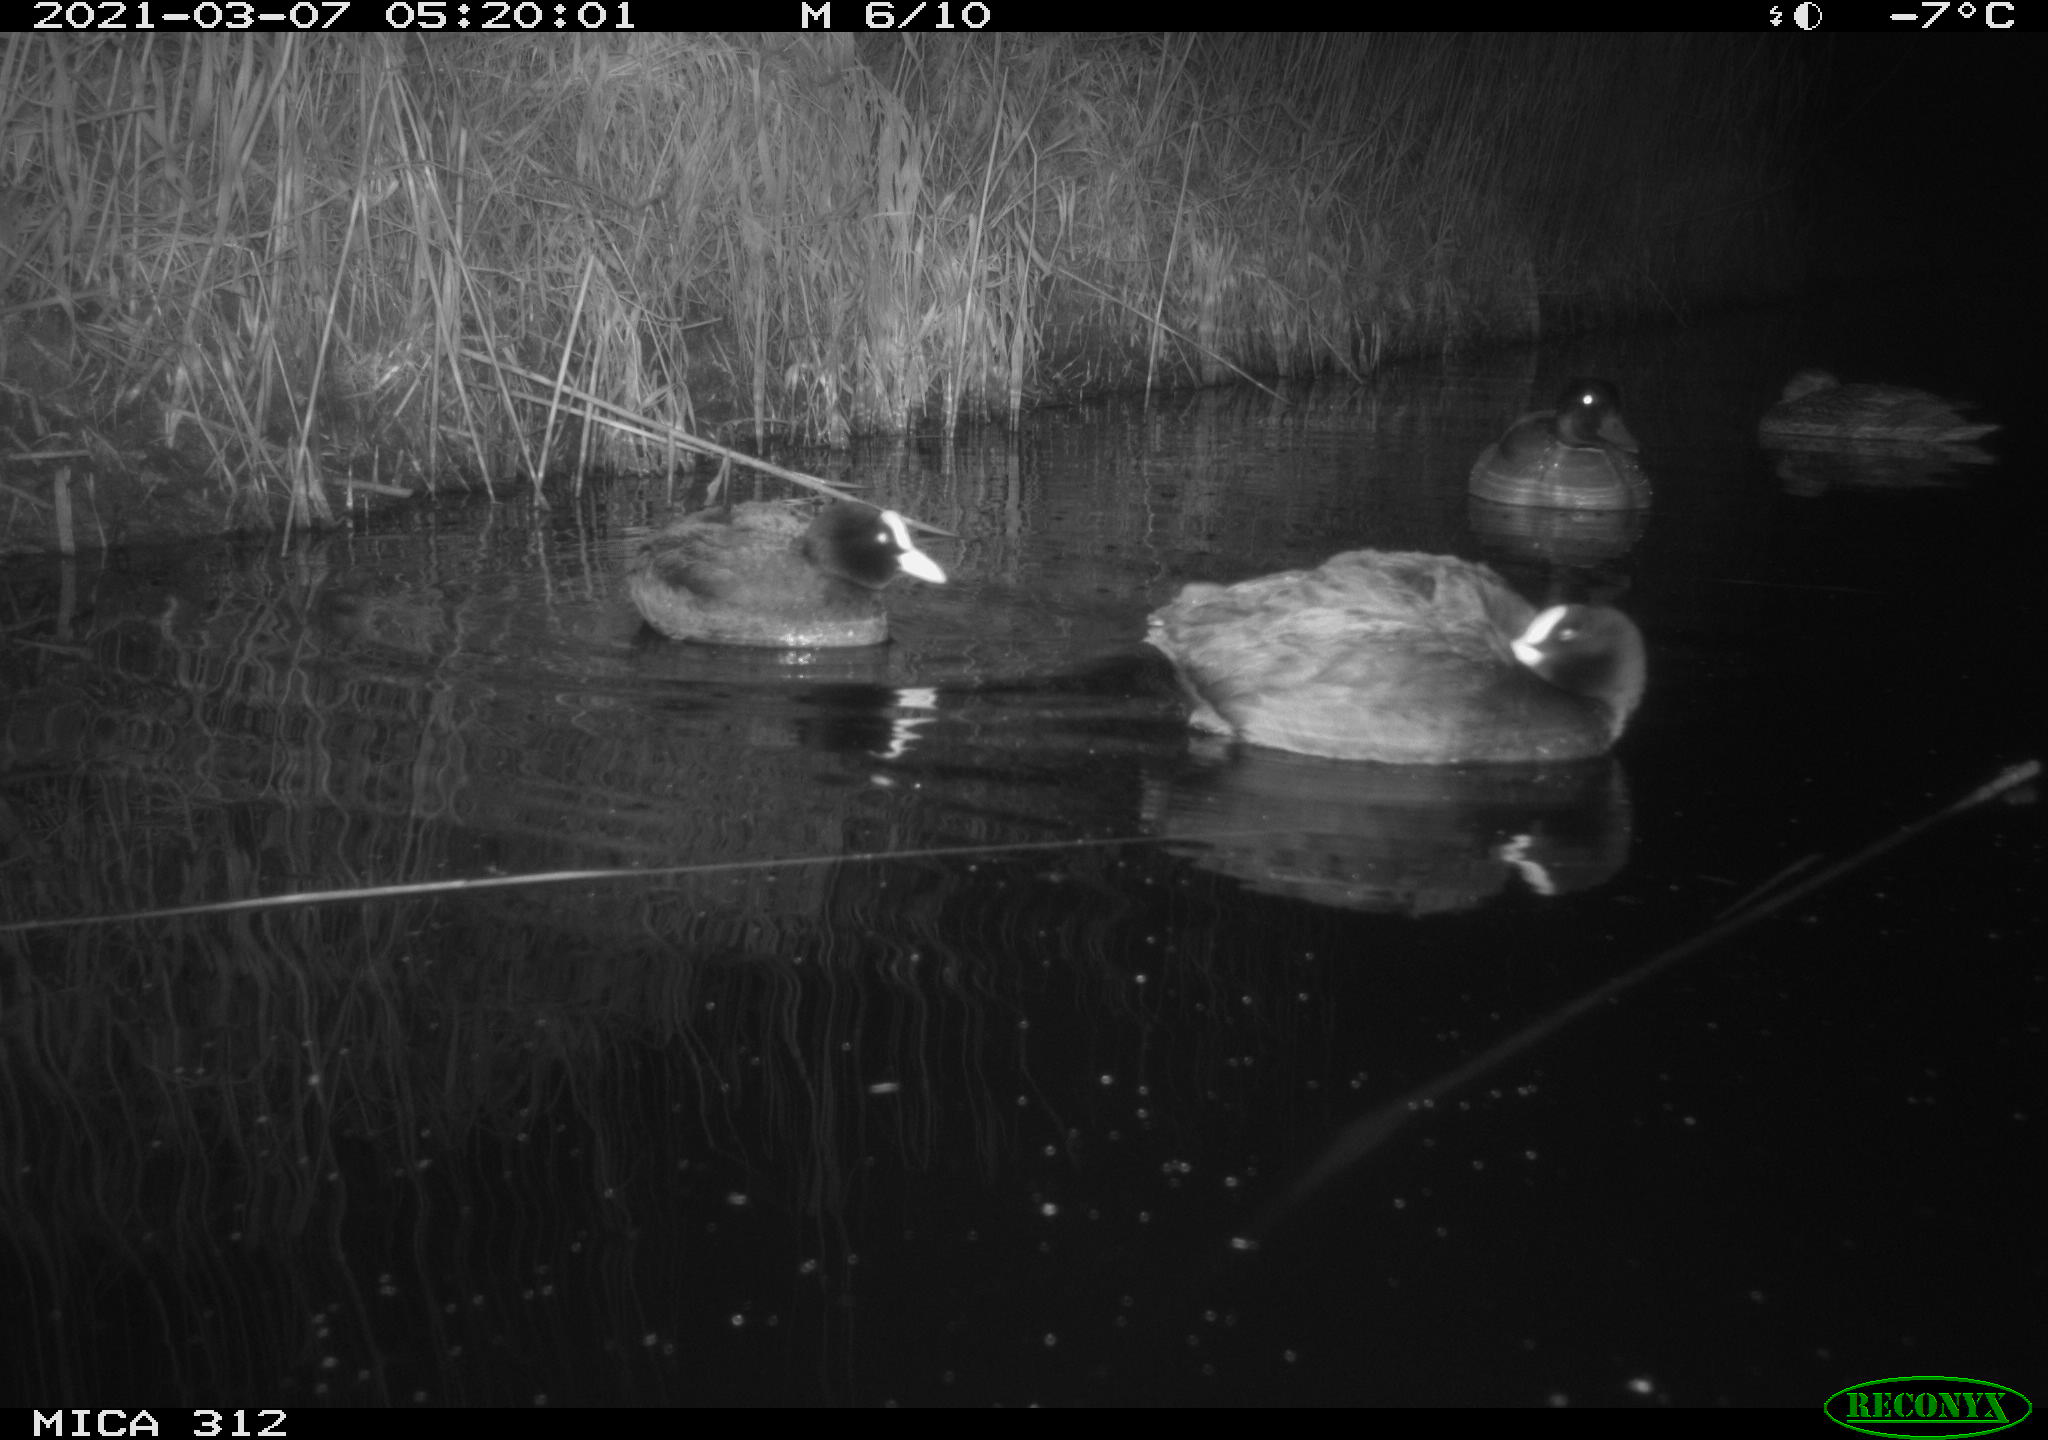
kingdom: Animalia
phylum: Chordata
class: Aves
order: Anseriformes
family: Anatidae
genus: Anas
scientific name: Anas platyrhynchos
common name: Mallard
